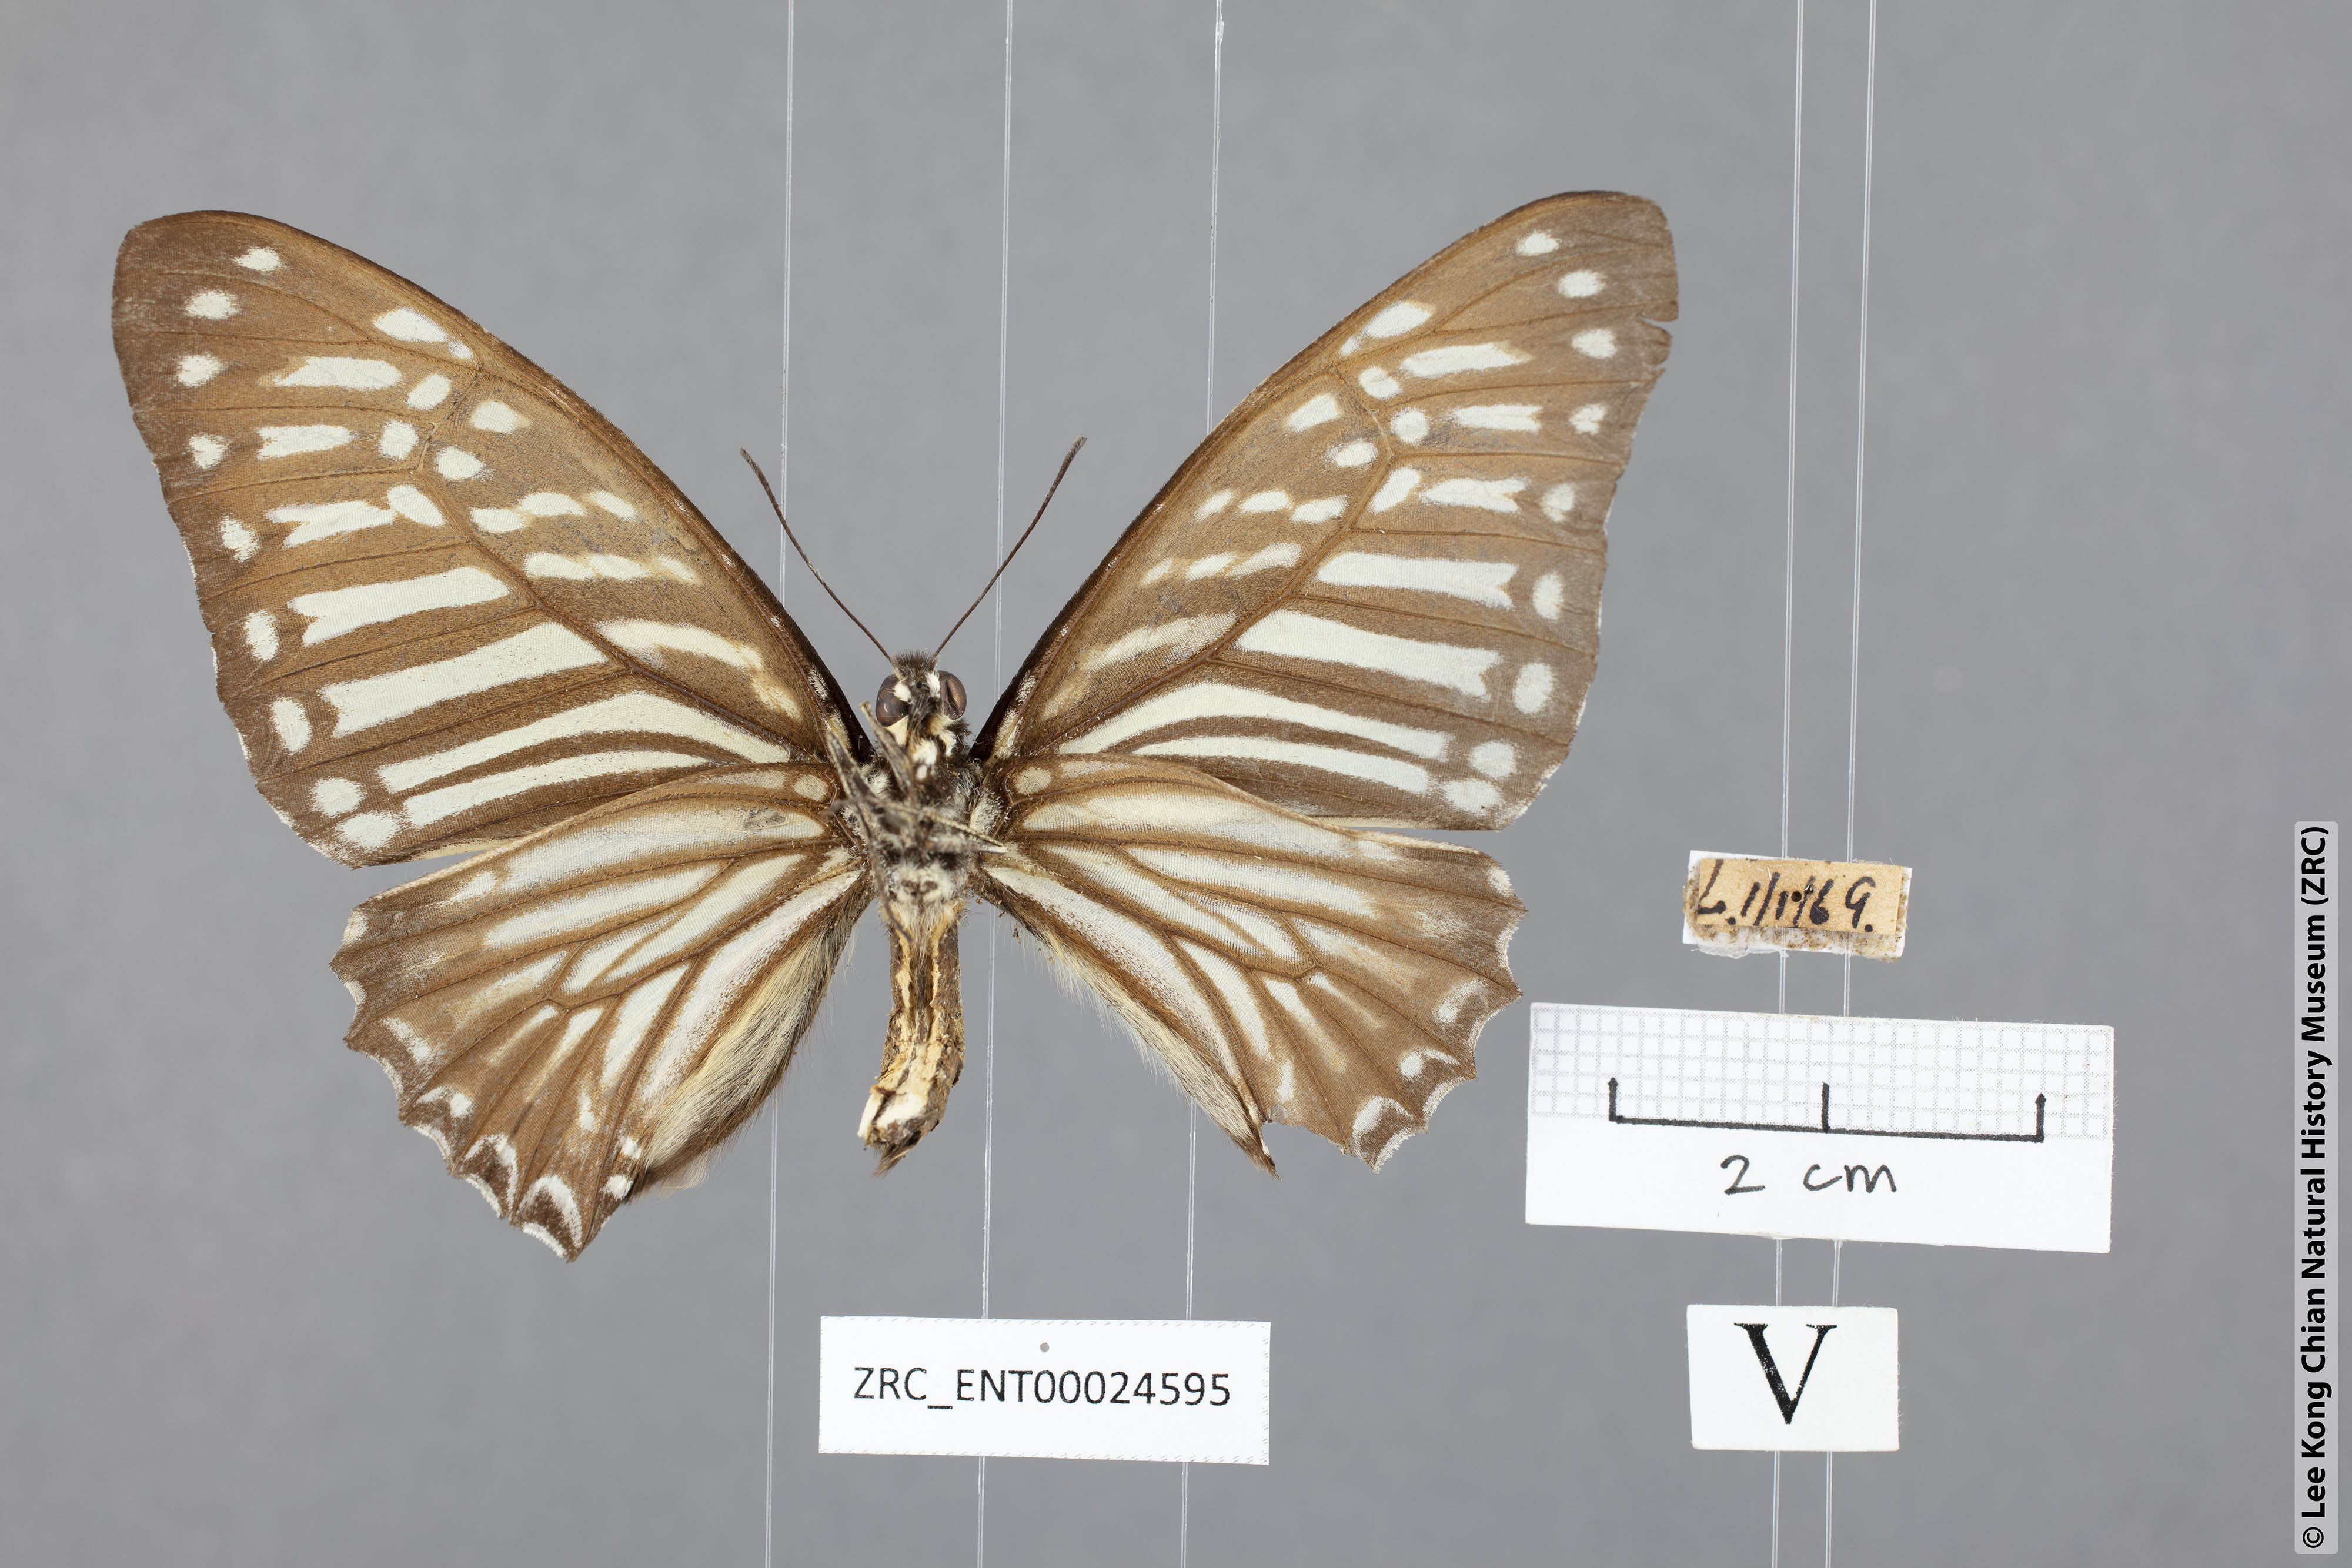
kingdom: Animalia
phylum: Arthropoda
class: Insecta
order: Lepidoptera
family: Papilionidae
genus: Graphium
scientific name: Graphium macareus
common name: Lesser zebra
